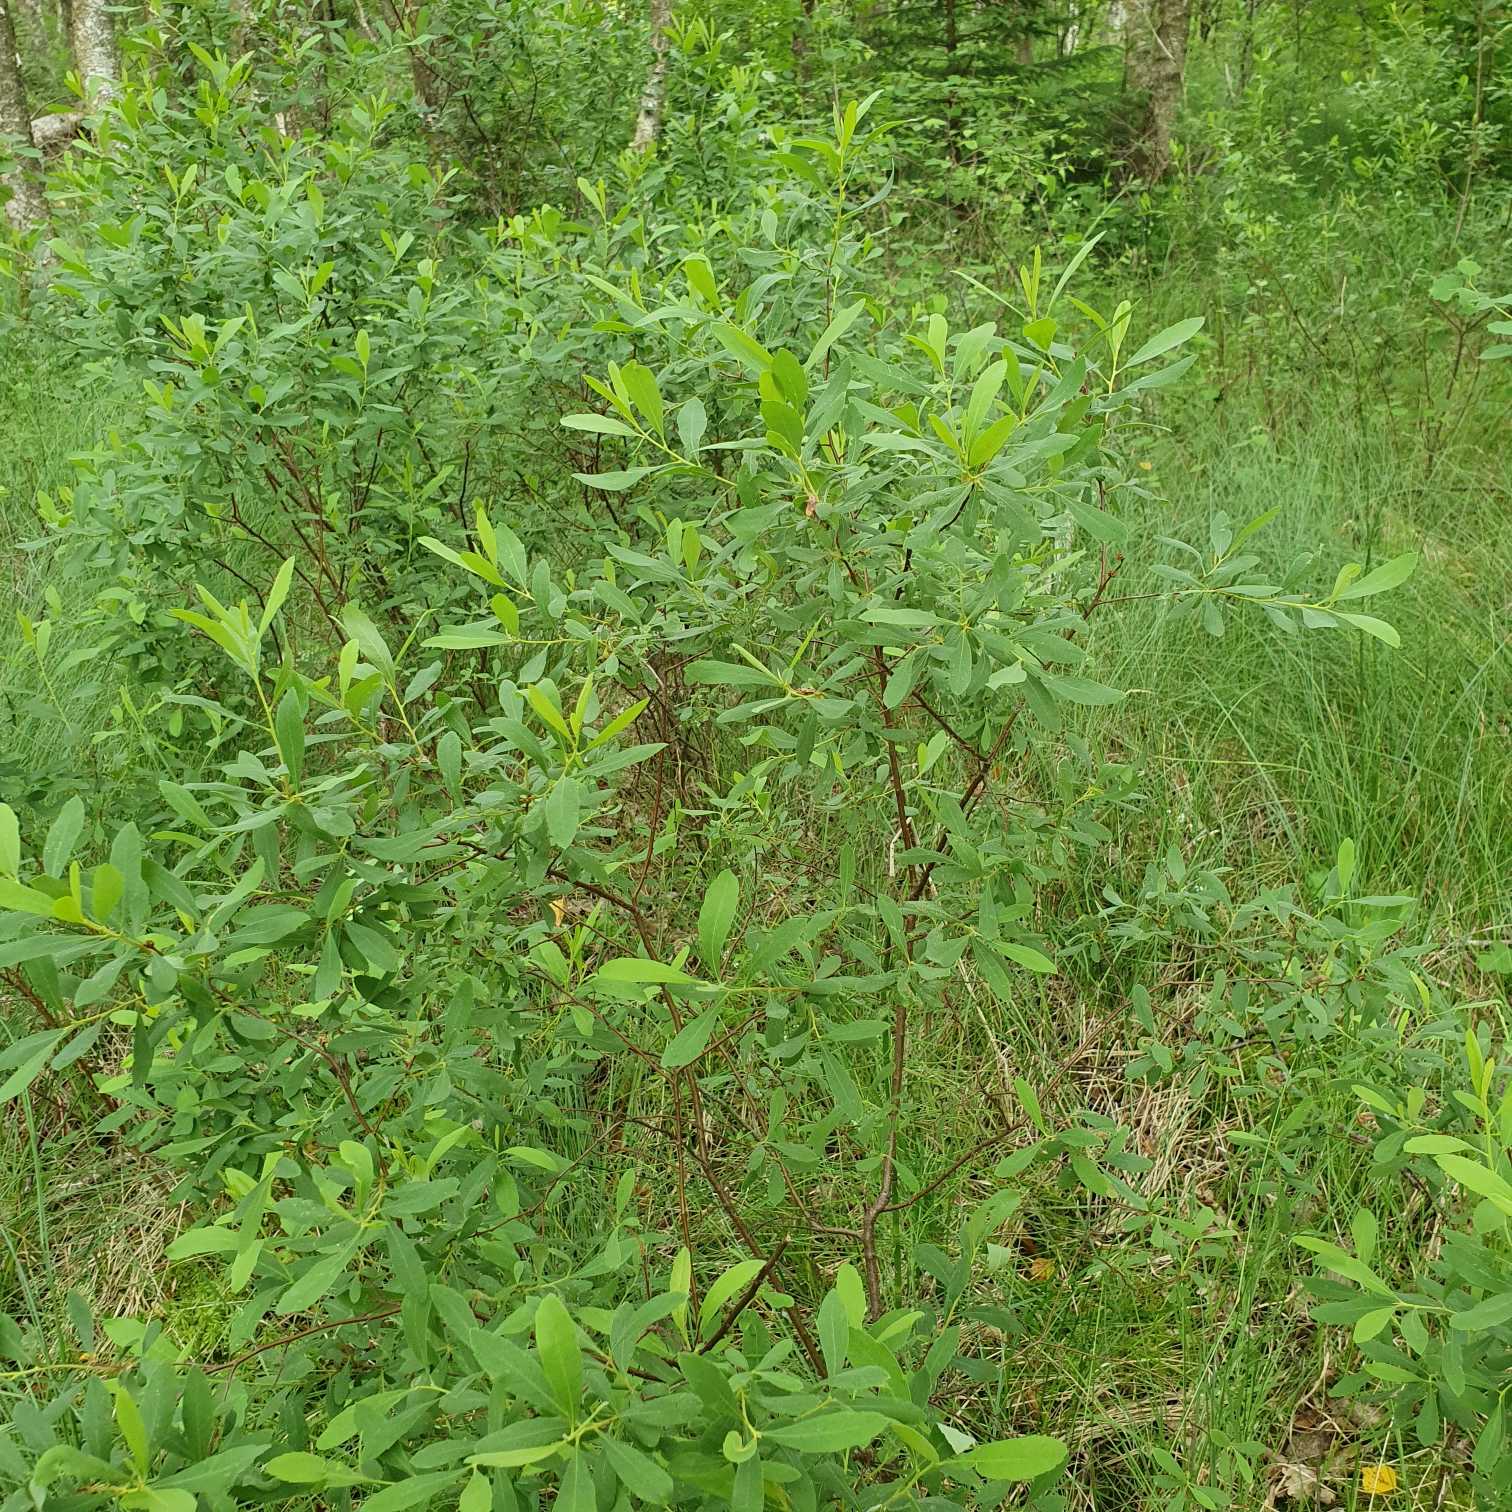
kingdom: Plantae
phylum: Tracheophyta
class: Magnoliopsida
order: Fagales
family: Myricaceae
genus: Myrica
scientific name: Myrica gale
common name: Pors
